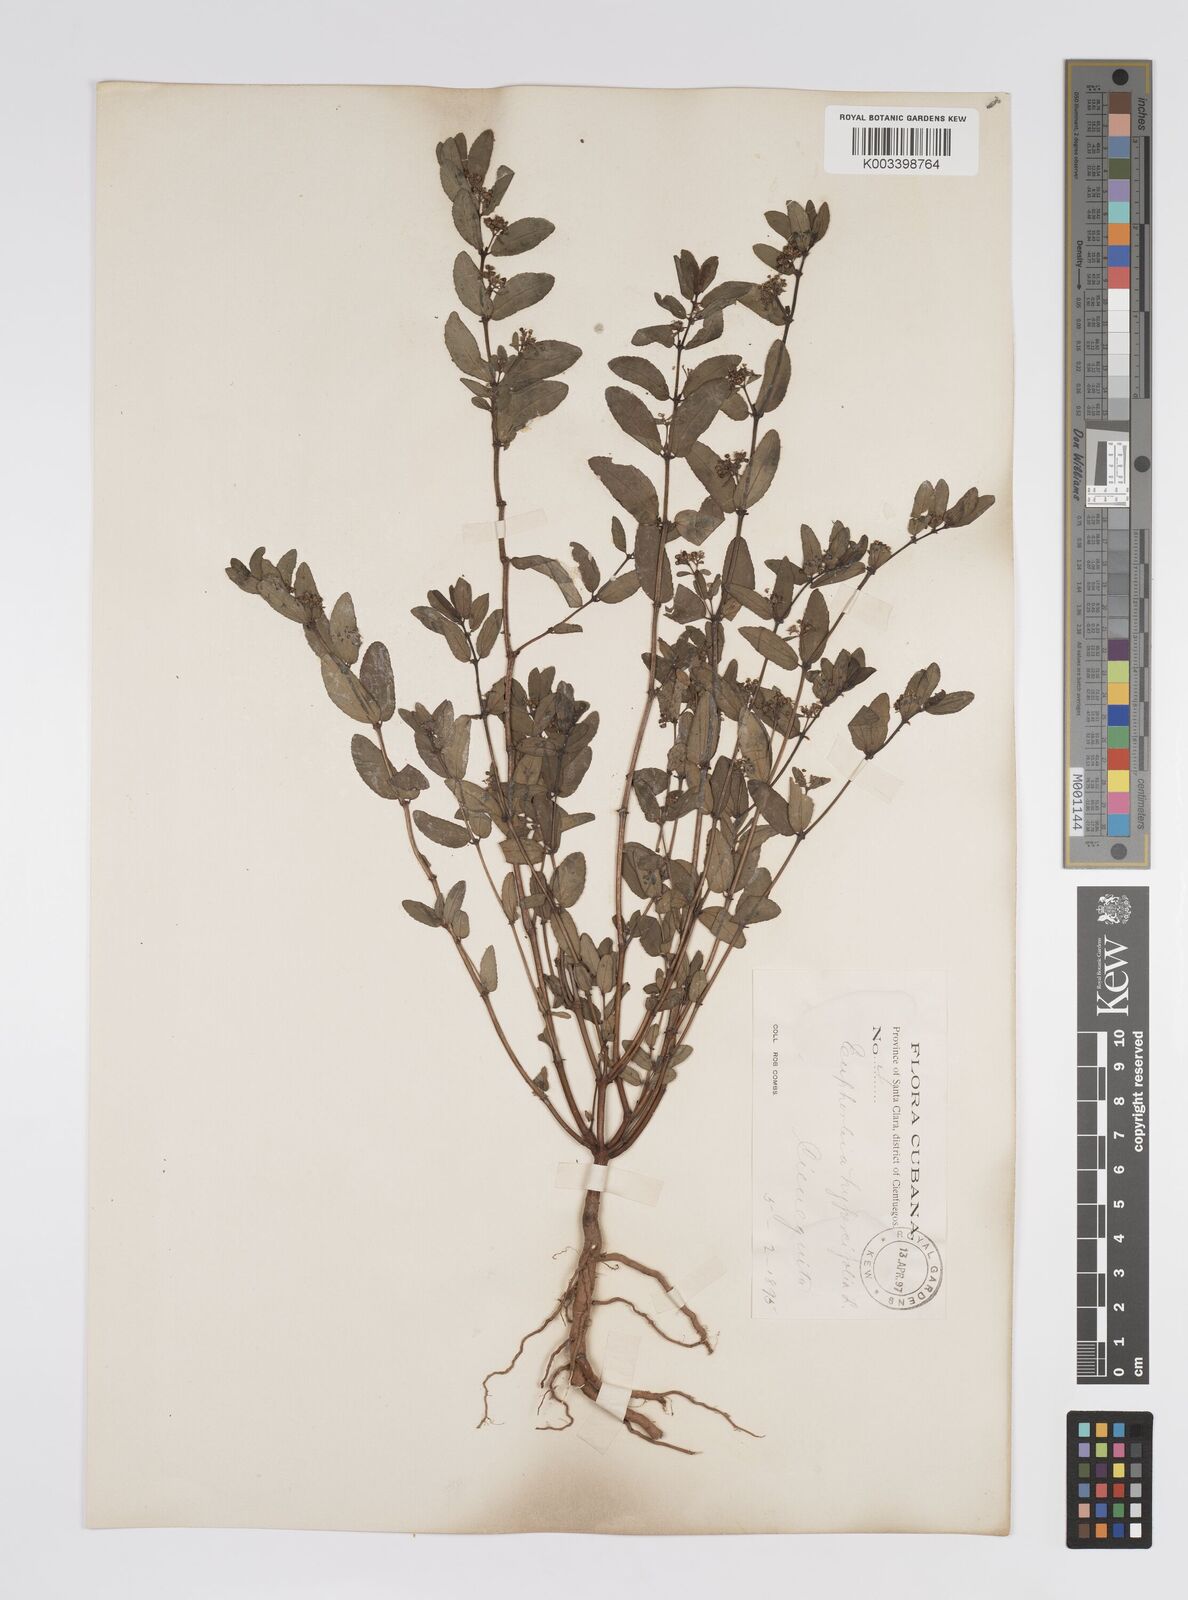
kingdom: Plantae
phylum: Tracheophyta
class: Magnoliopsida
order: Malpighiales
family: Euphorbiaceae
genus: Euphorbia
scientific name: Euphorbia
